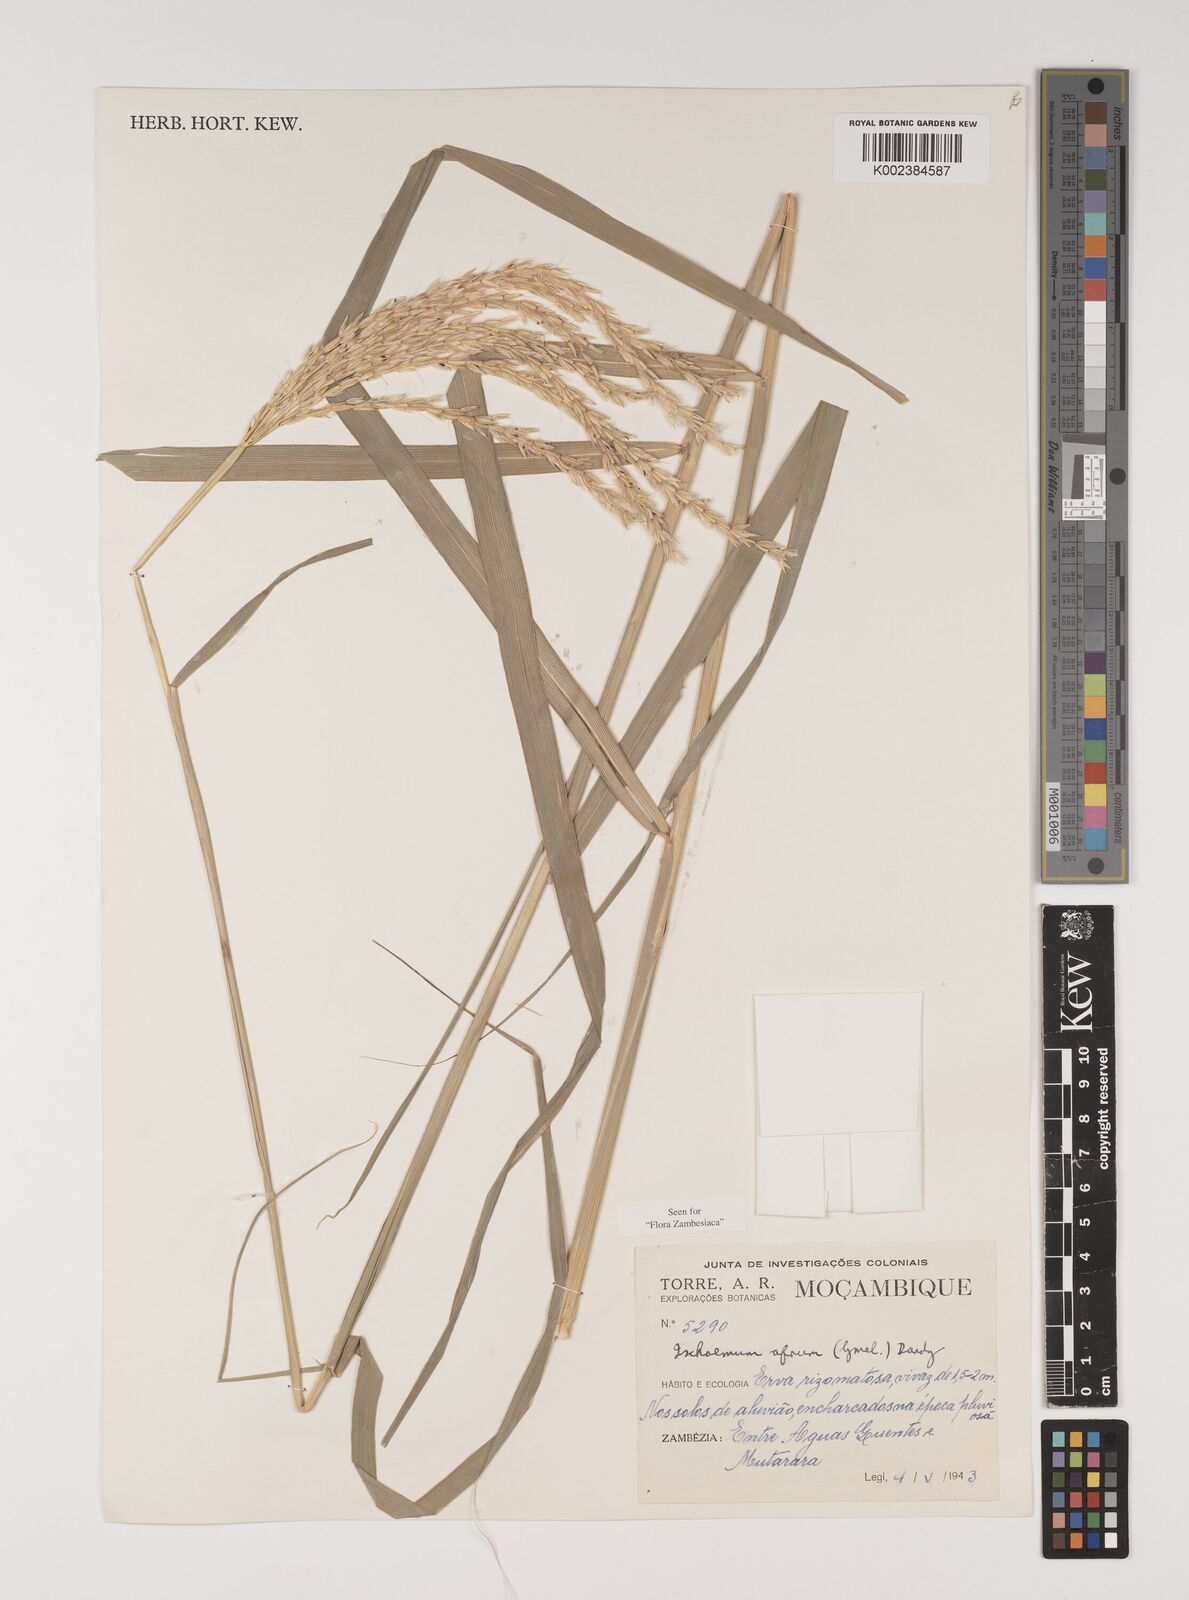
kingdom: Plantae
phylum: Tracheophyta
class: Liliopsida
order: Poales
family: Poaceae
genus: Ischaemum
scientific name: Ischaemum afrum
